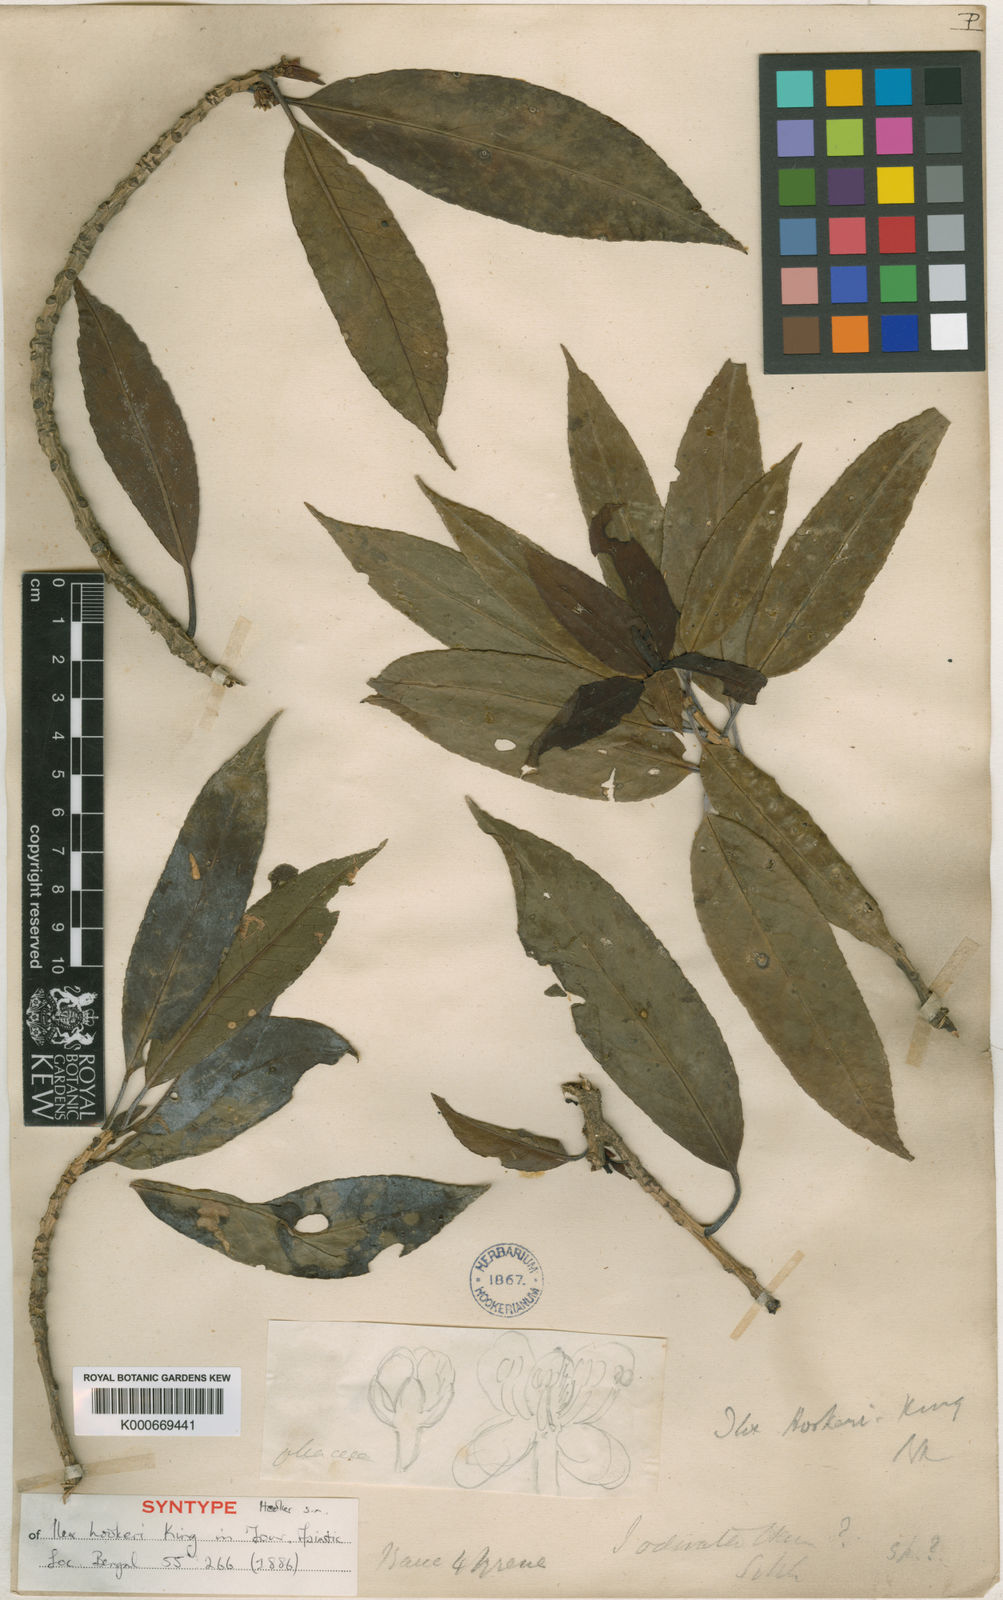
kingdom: Plantae
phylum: Tracheophyta
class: Magnoliopsida
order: Aquifoliales
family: Aquifoliaceae
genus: Ilex
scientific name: Ilex hookeri
